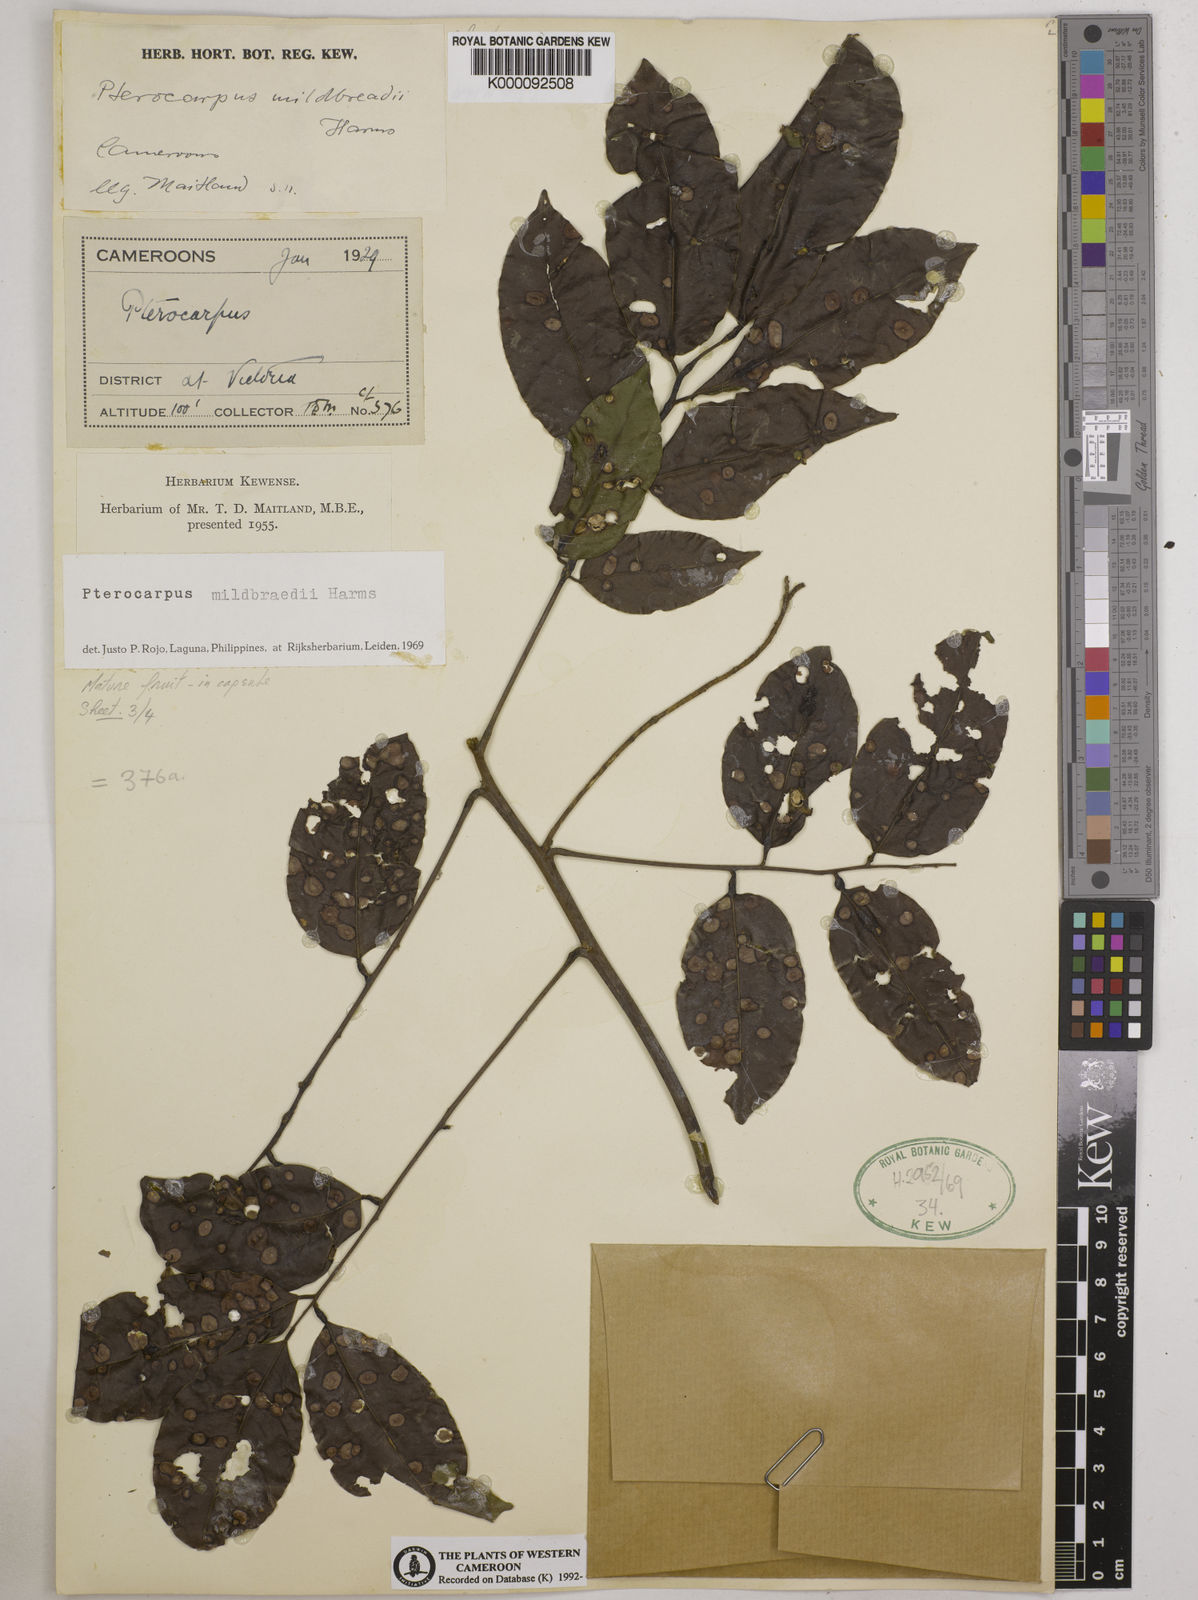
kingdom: Plantae
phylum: Tracheophyta
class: Magnoliopsida
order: Fabales
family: Fabaceae
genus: Pterocarpus
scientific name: Pterocarpus mildbraedii
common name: White padouk
